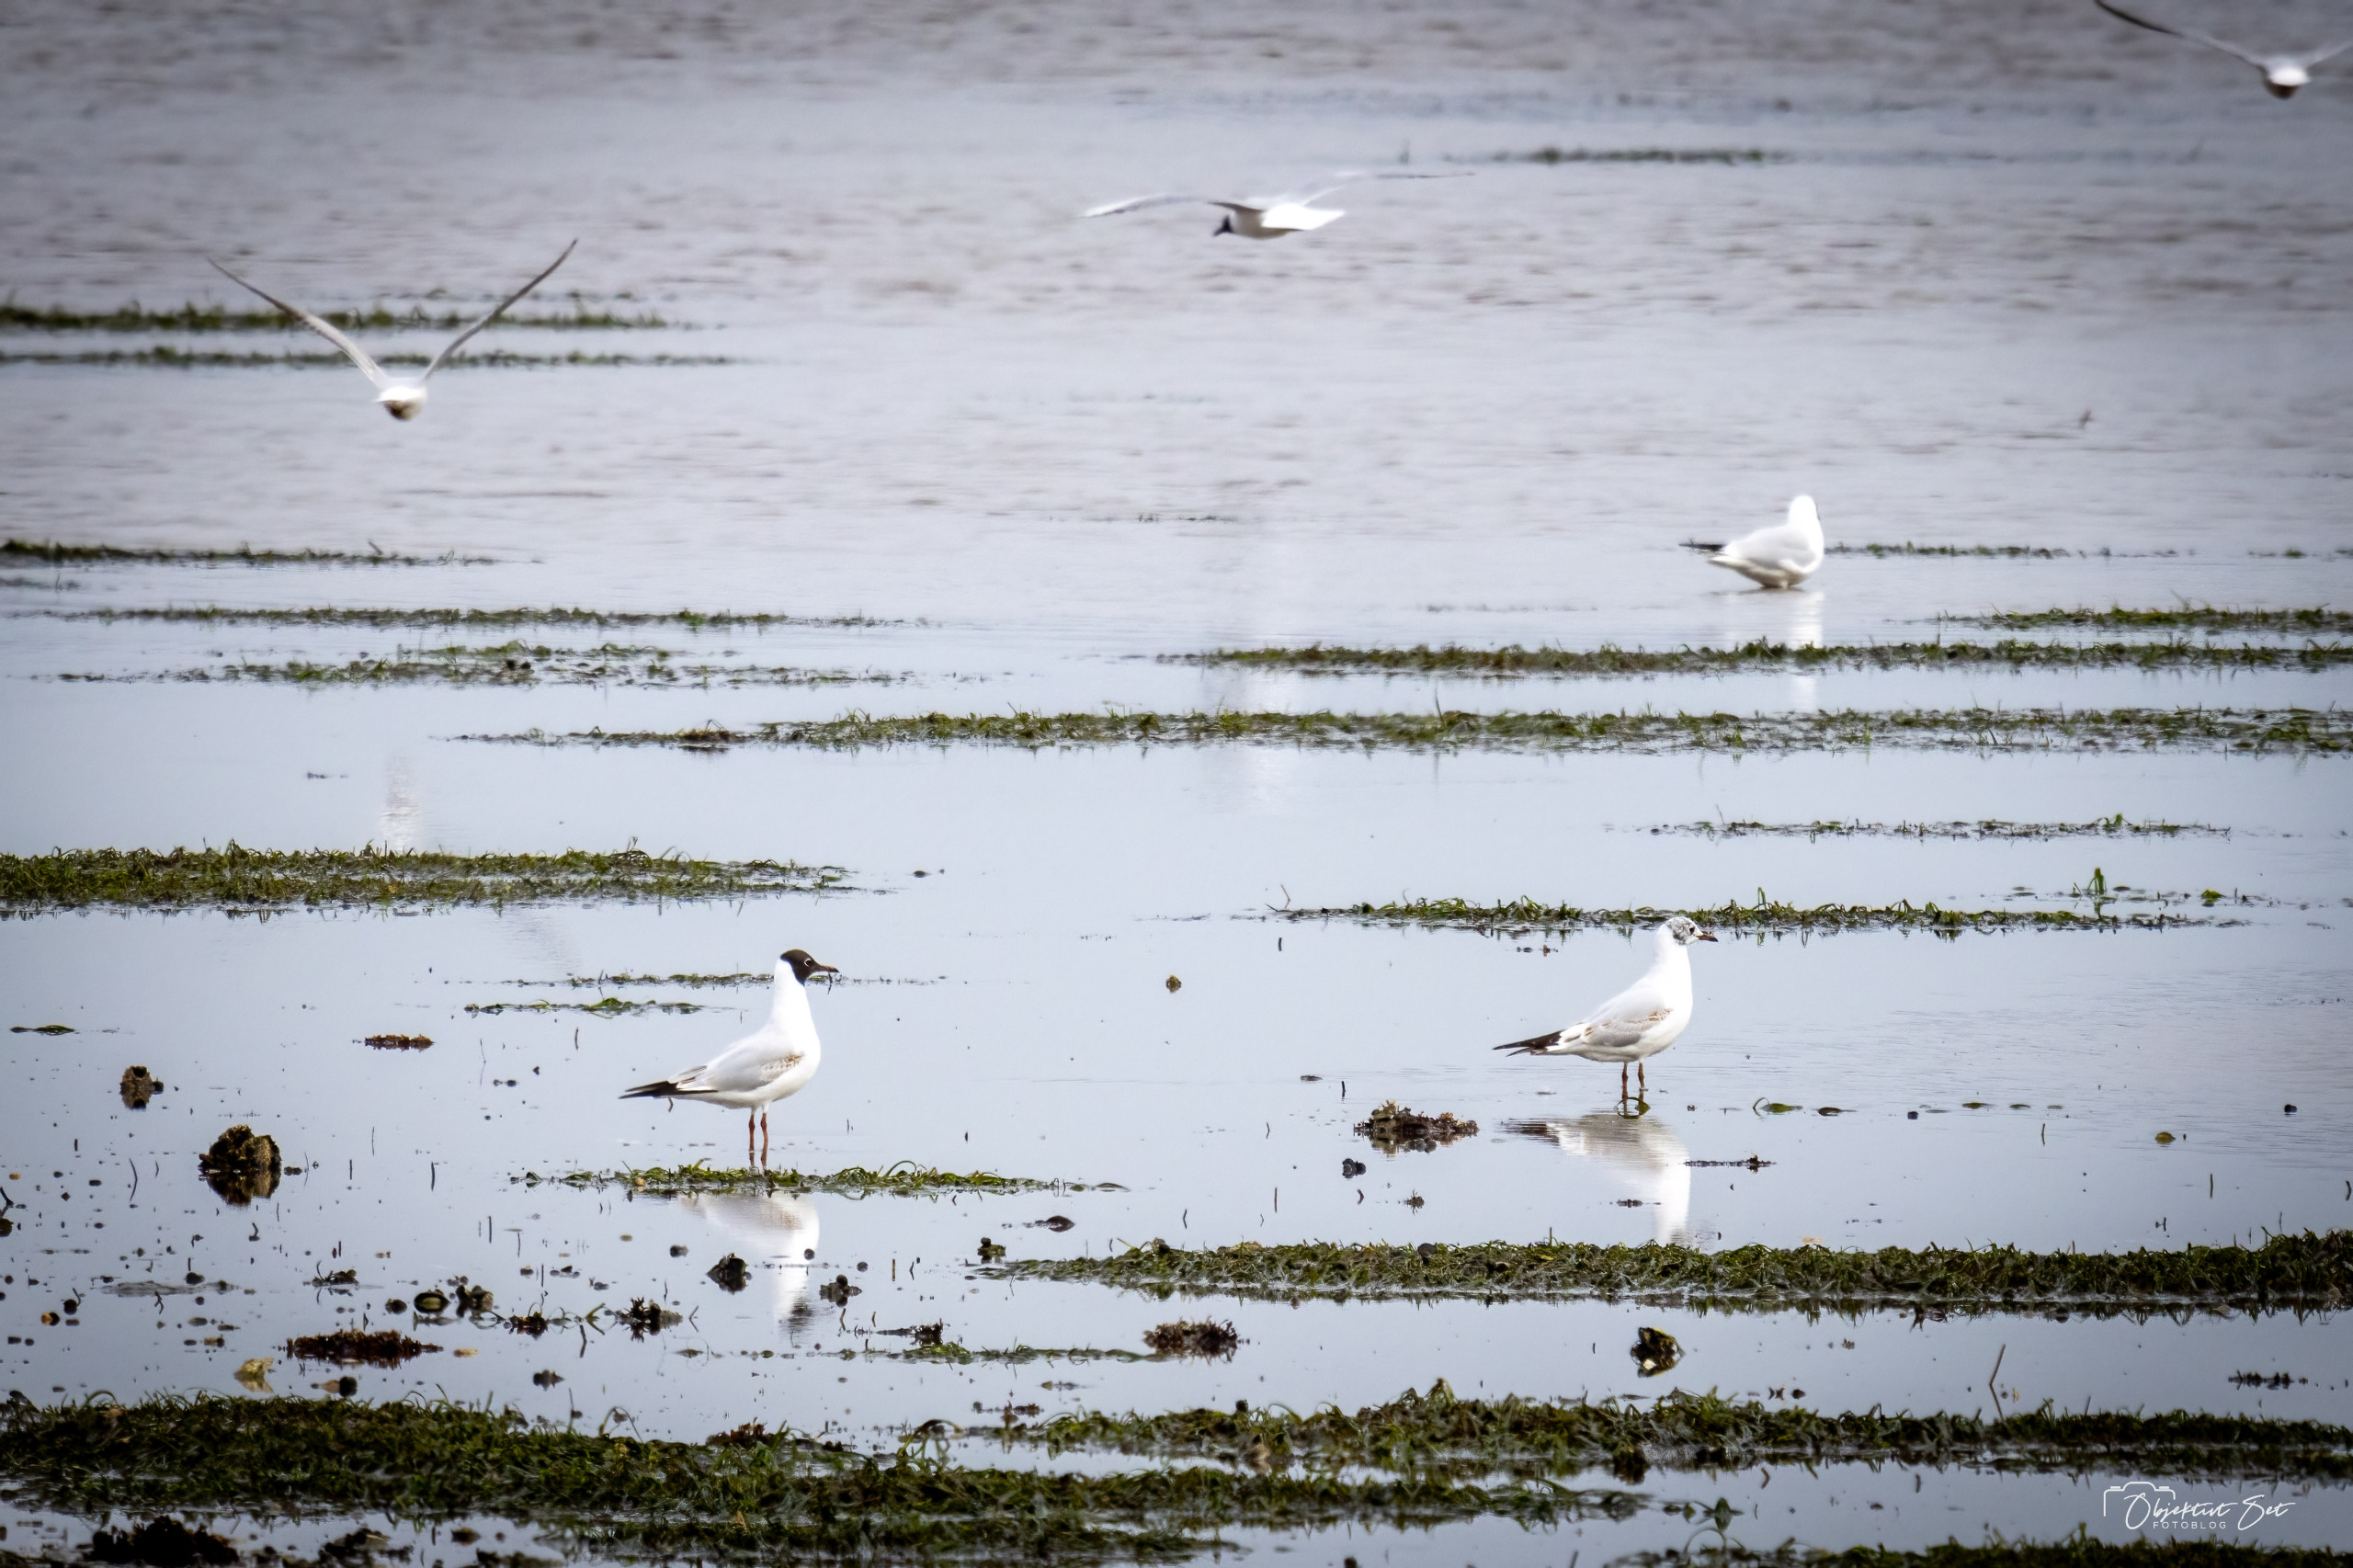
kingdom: Animalia
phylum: Chordata
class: Aves
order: Charadriiformes
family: Laridae
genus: Chroicocephalus
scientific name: Chroicocephalus ridibundus
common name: Hættemåge
